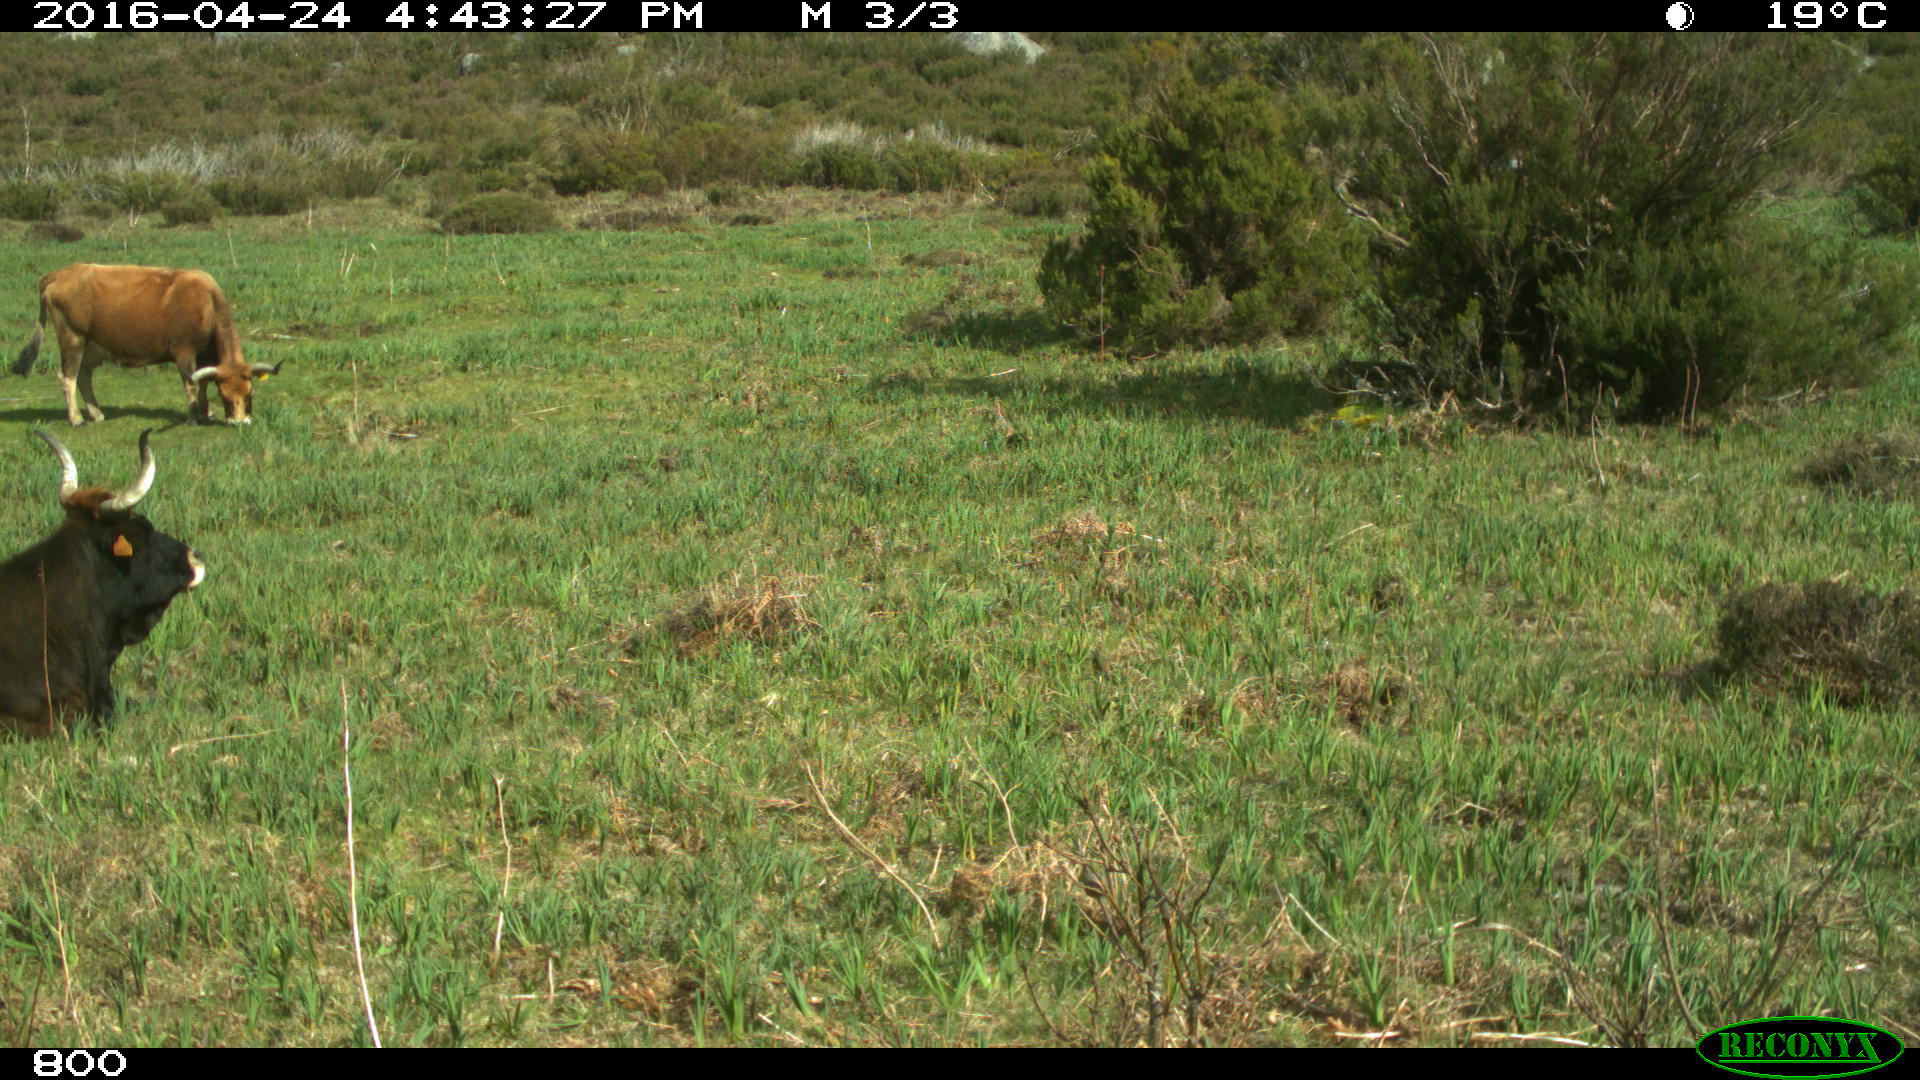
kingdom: Animalia
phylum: Chordata
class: Mammalia
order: Artiodactyla
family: Bovidae
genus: Bos
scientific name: Bos taurus
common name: Domesticated cattle
